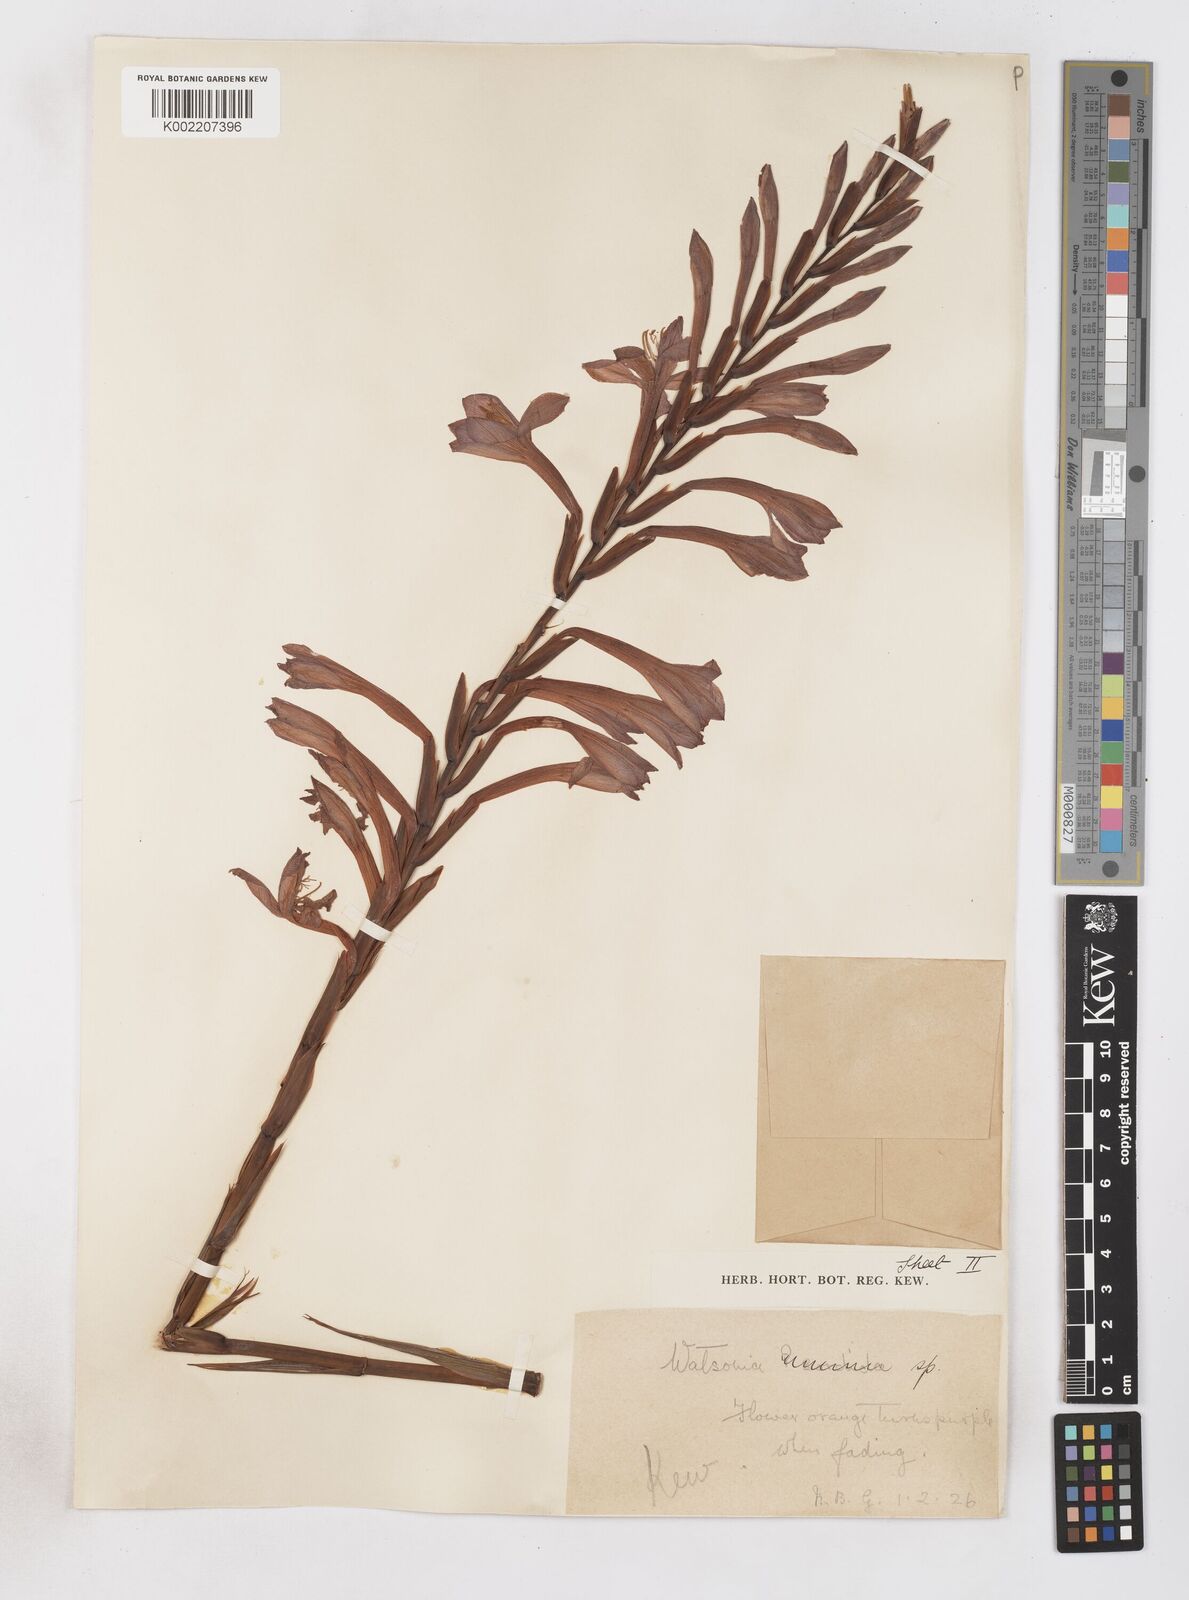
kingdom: Plantae
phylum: Tracheophyta
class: Liliopsida
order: Asparagales
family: Iridaceae
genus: Watsonia
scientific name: Watsonia pillansii
